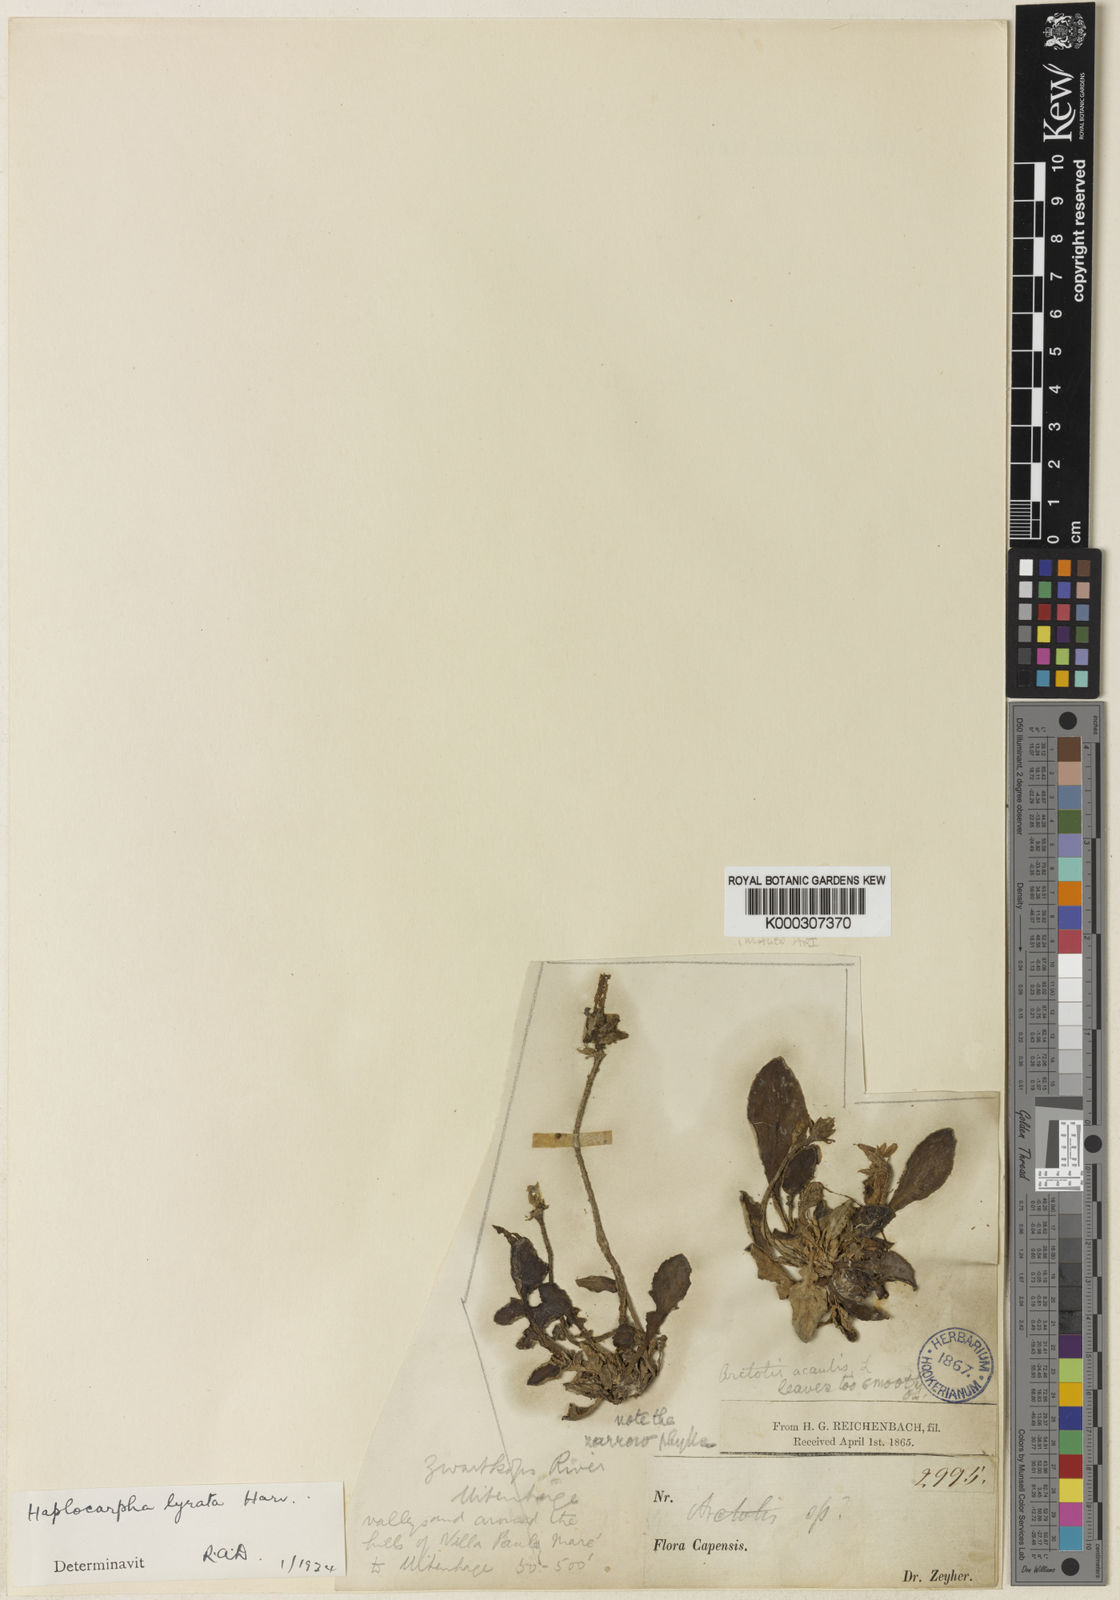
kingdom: Plantae
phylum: Tracheophyta
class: Magnoliopsida
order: Asterales
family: Asteraceae
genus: Haplocarpha
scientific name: Haplocarpha lyrata
